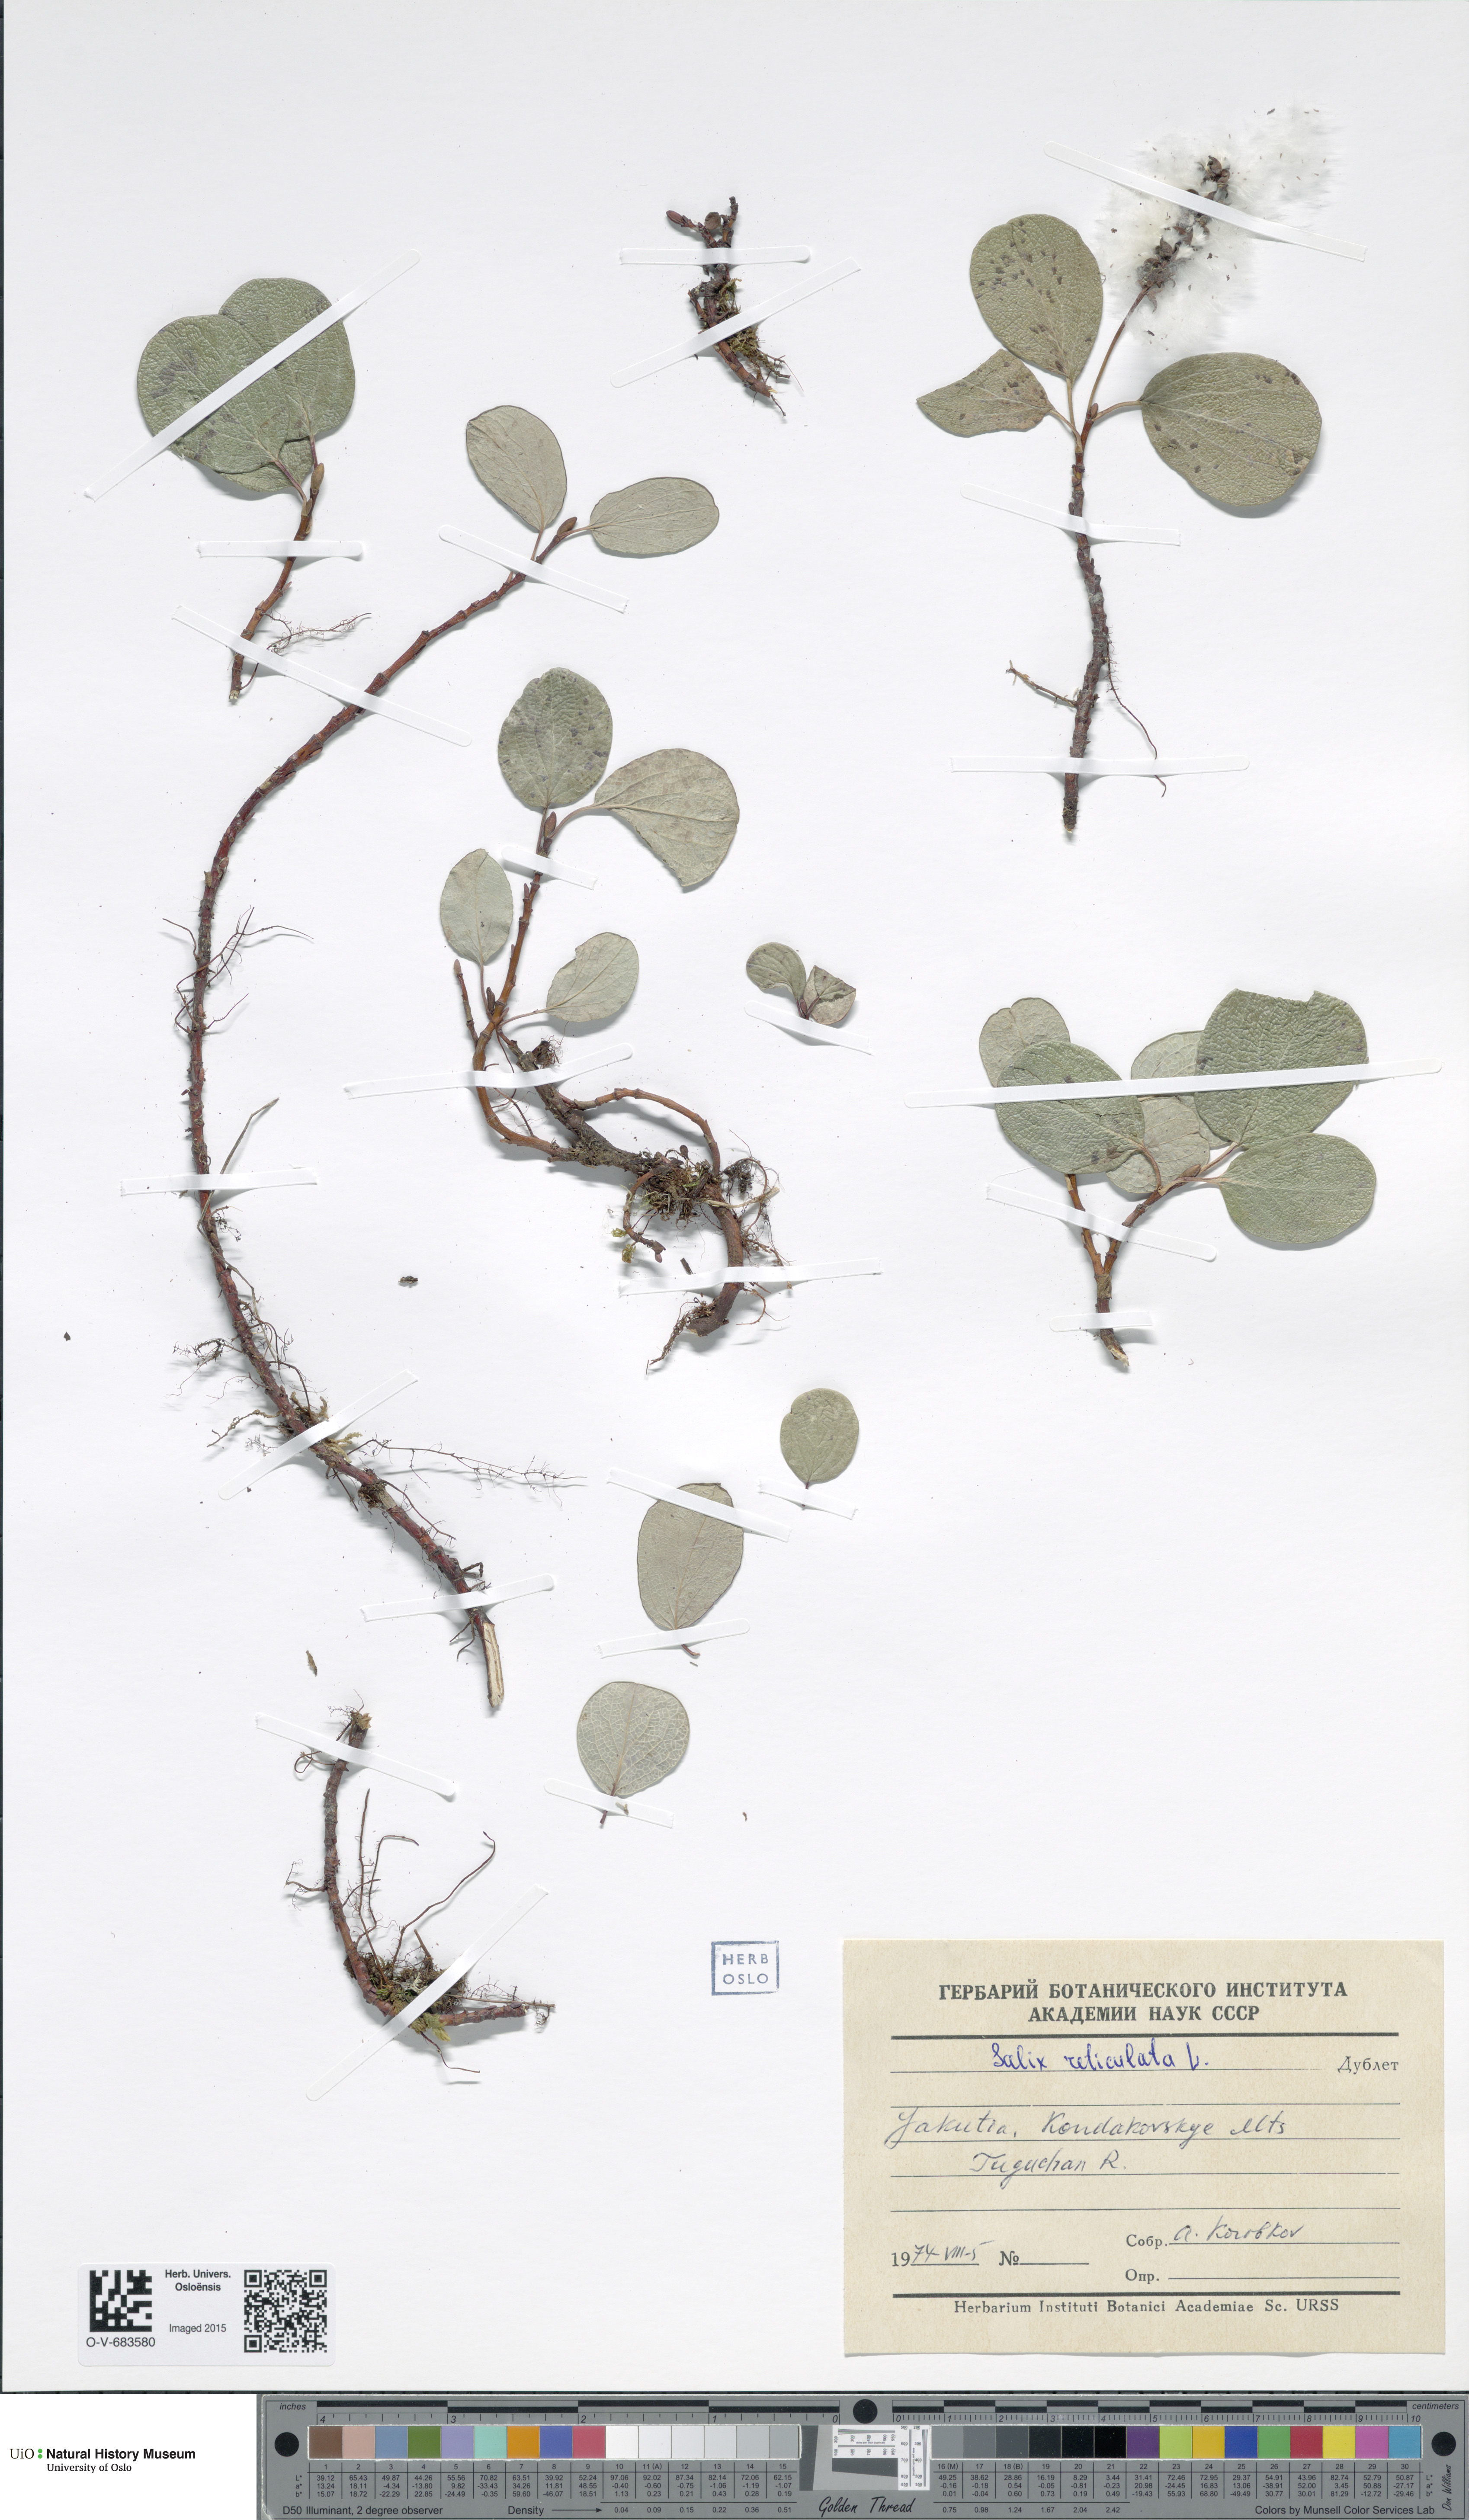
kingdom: Plantae
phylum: Tracheophyta
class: Magnoliopsida
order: Malpighiales
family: Salicaceae
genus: Salix
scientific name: Salix reticulata
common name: Net-leaved willow
